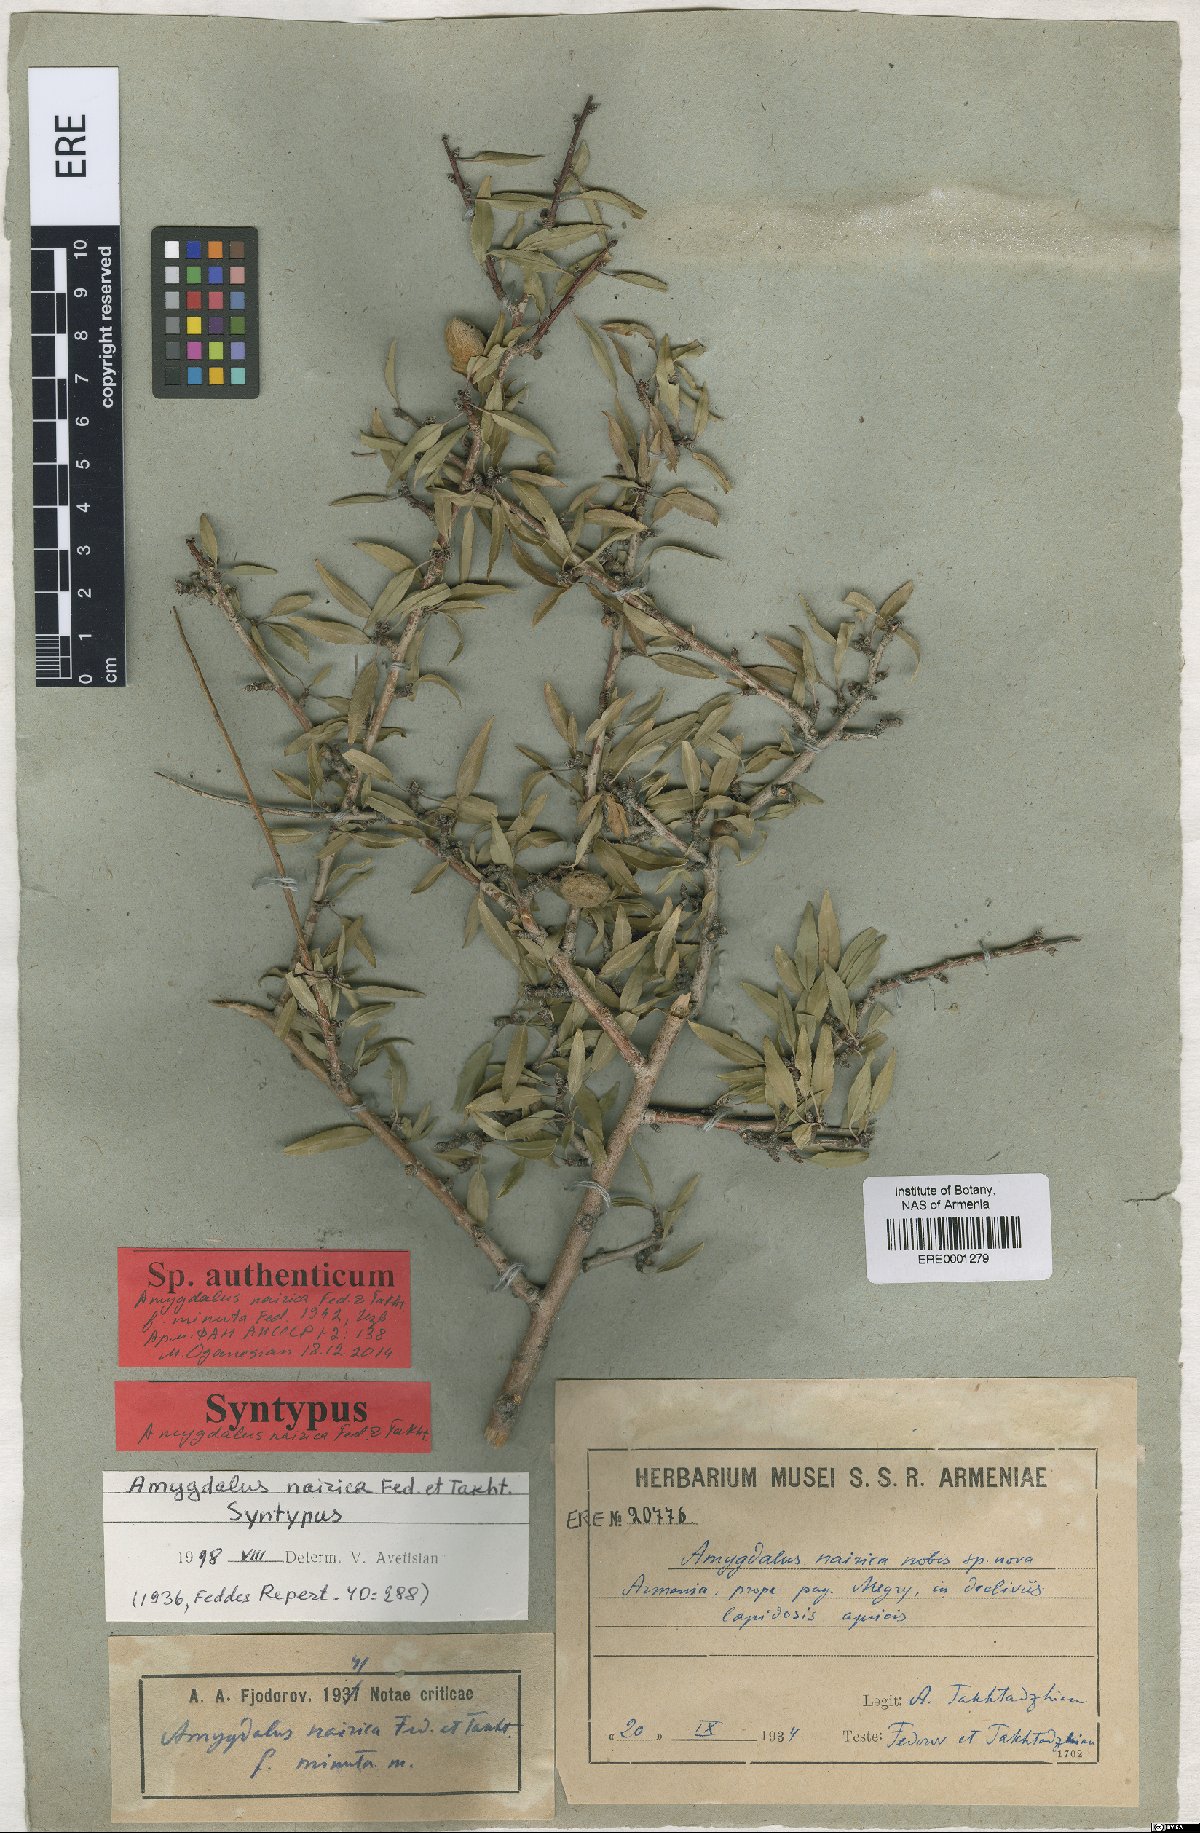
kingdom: Plantae
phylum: Tracheophyta
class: Magnoliopsida
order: Rosales
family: Rosaceae
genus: Prunus
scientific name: Prunus nairica
